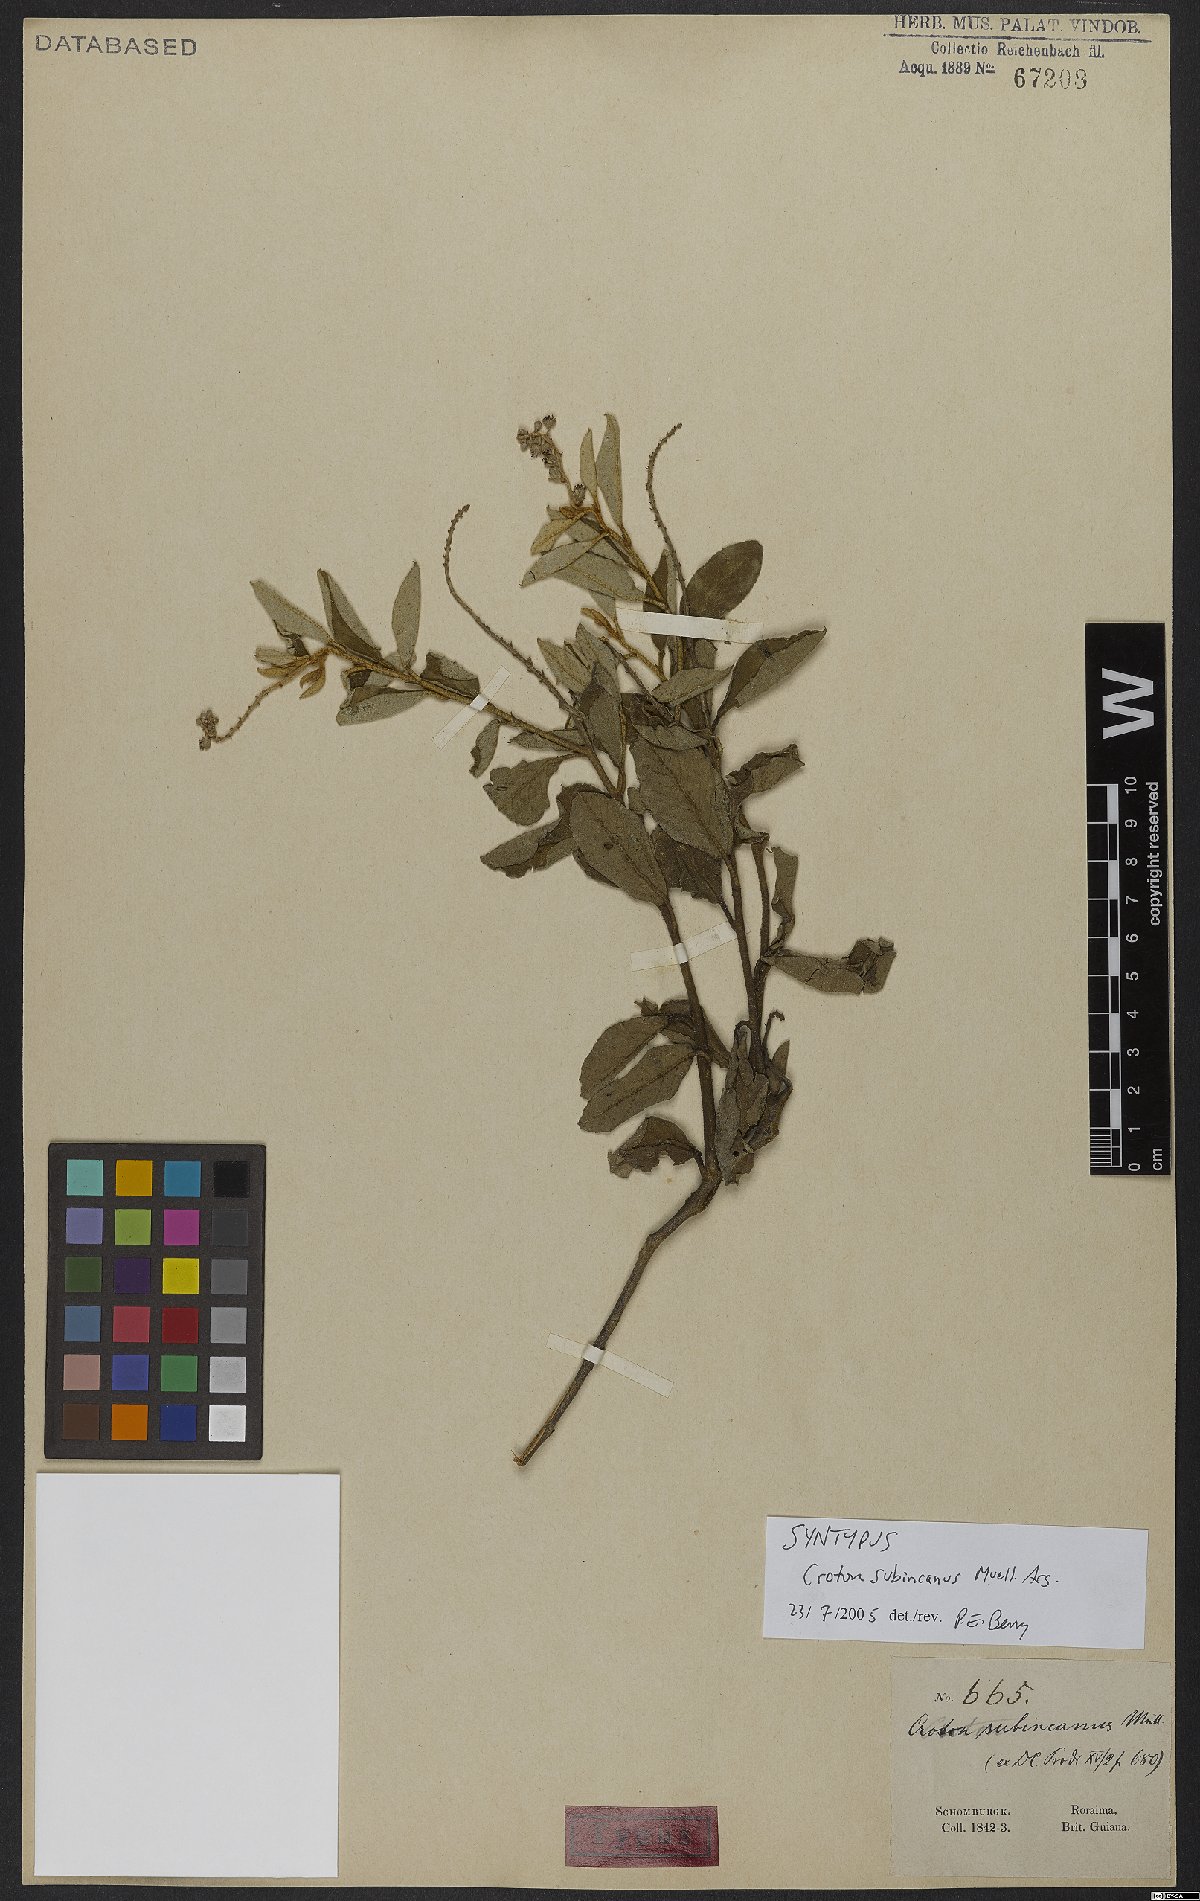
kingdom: Plantae
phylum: Tracheophyta
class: Magnoliopsida
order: Malpighiales
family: Euphorbiaceae
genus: Croton
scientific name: Croton hostmannii
